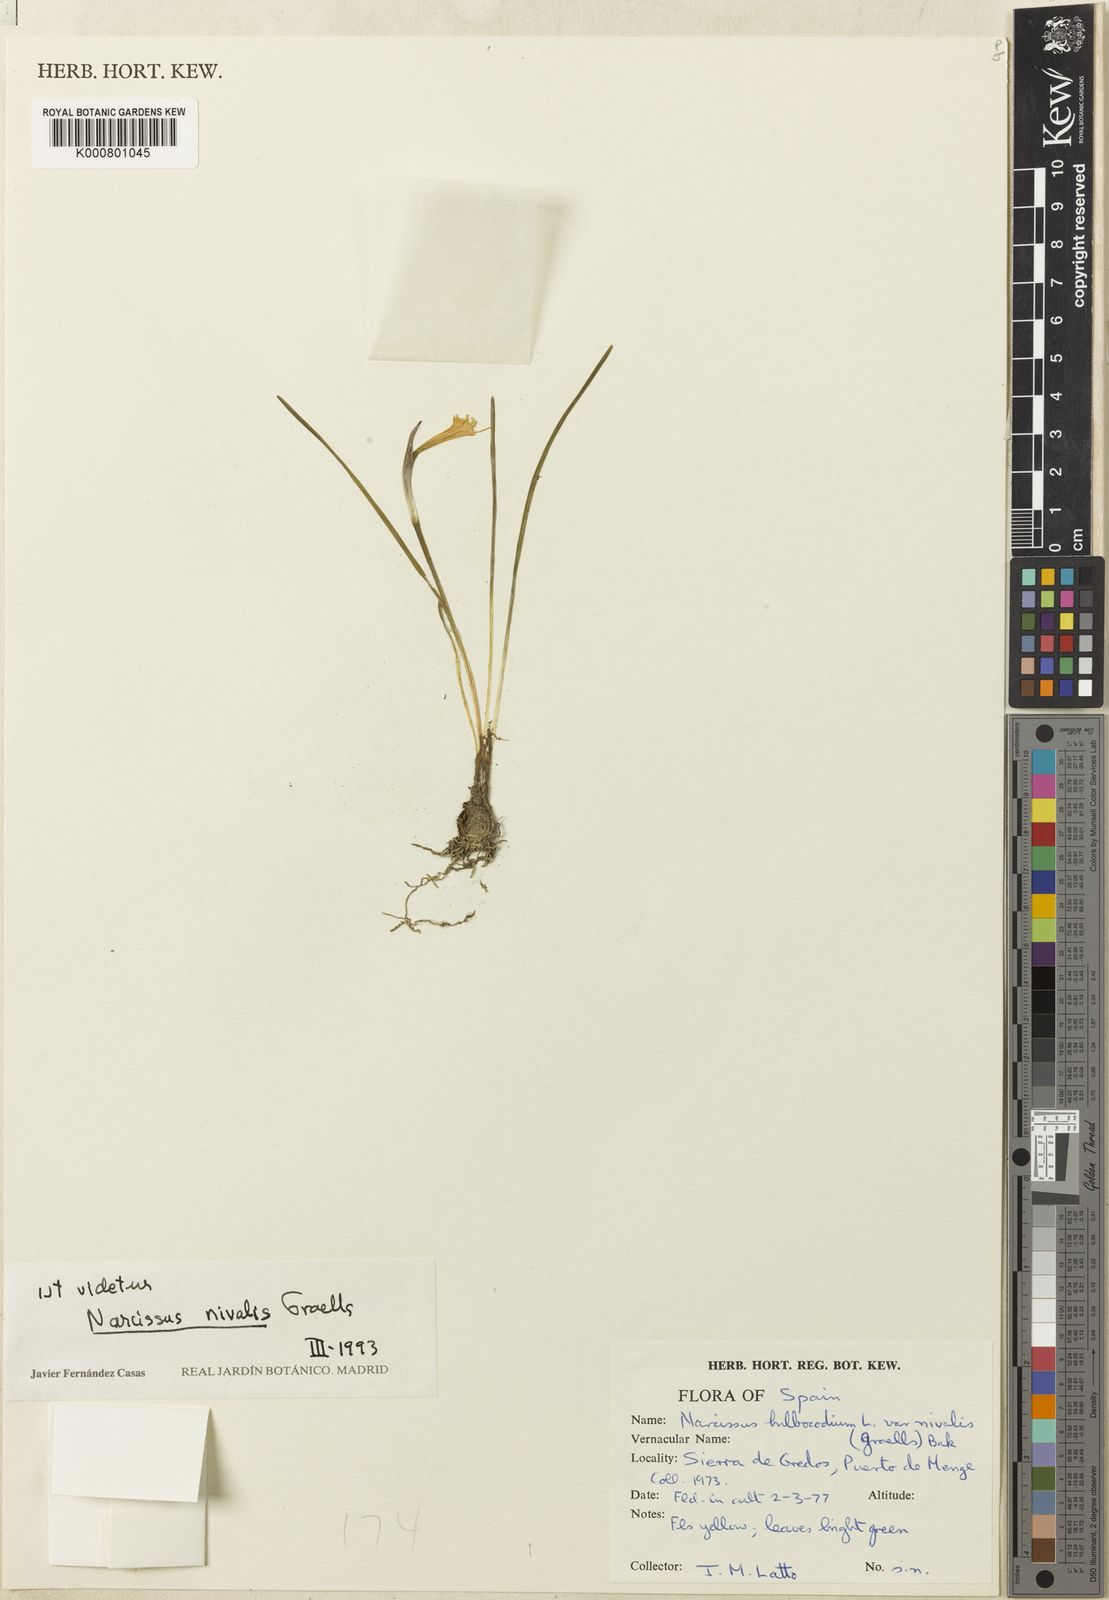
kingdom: Plantae
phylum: Tracheophyta
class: Liliopsida
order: Asparagales
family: Amaryllidaceae
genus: Narcissus
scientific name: Narcissus bulbocodium
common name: Hoop-petticoat daffodil
